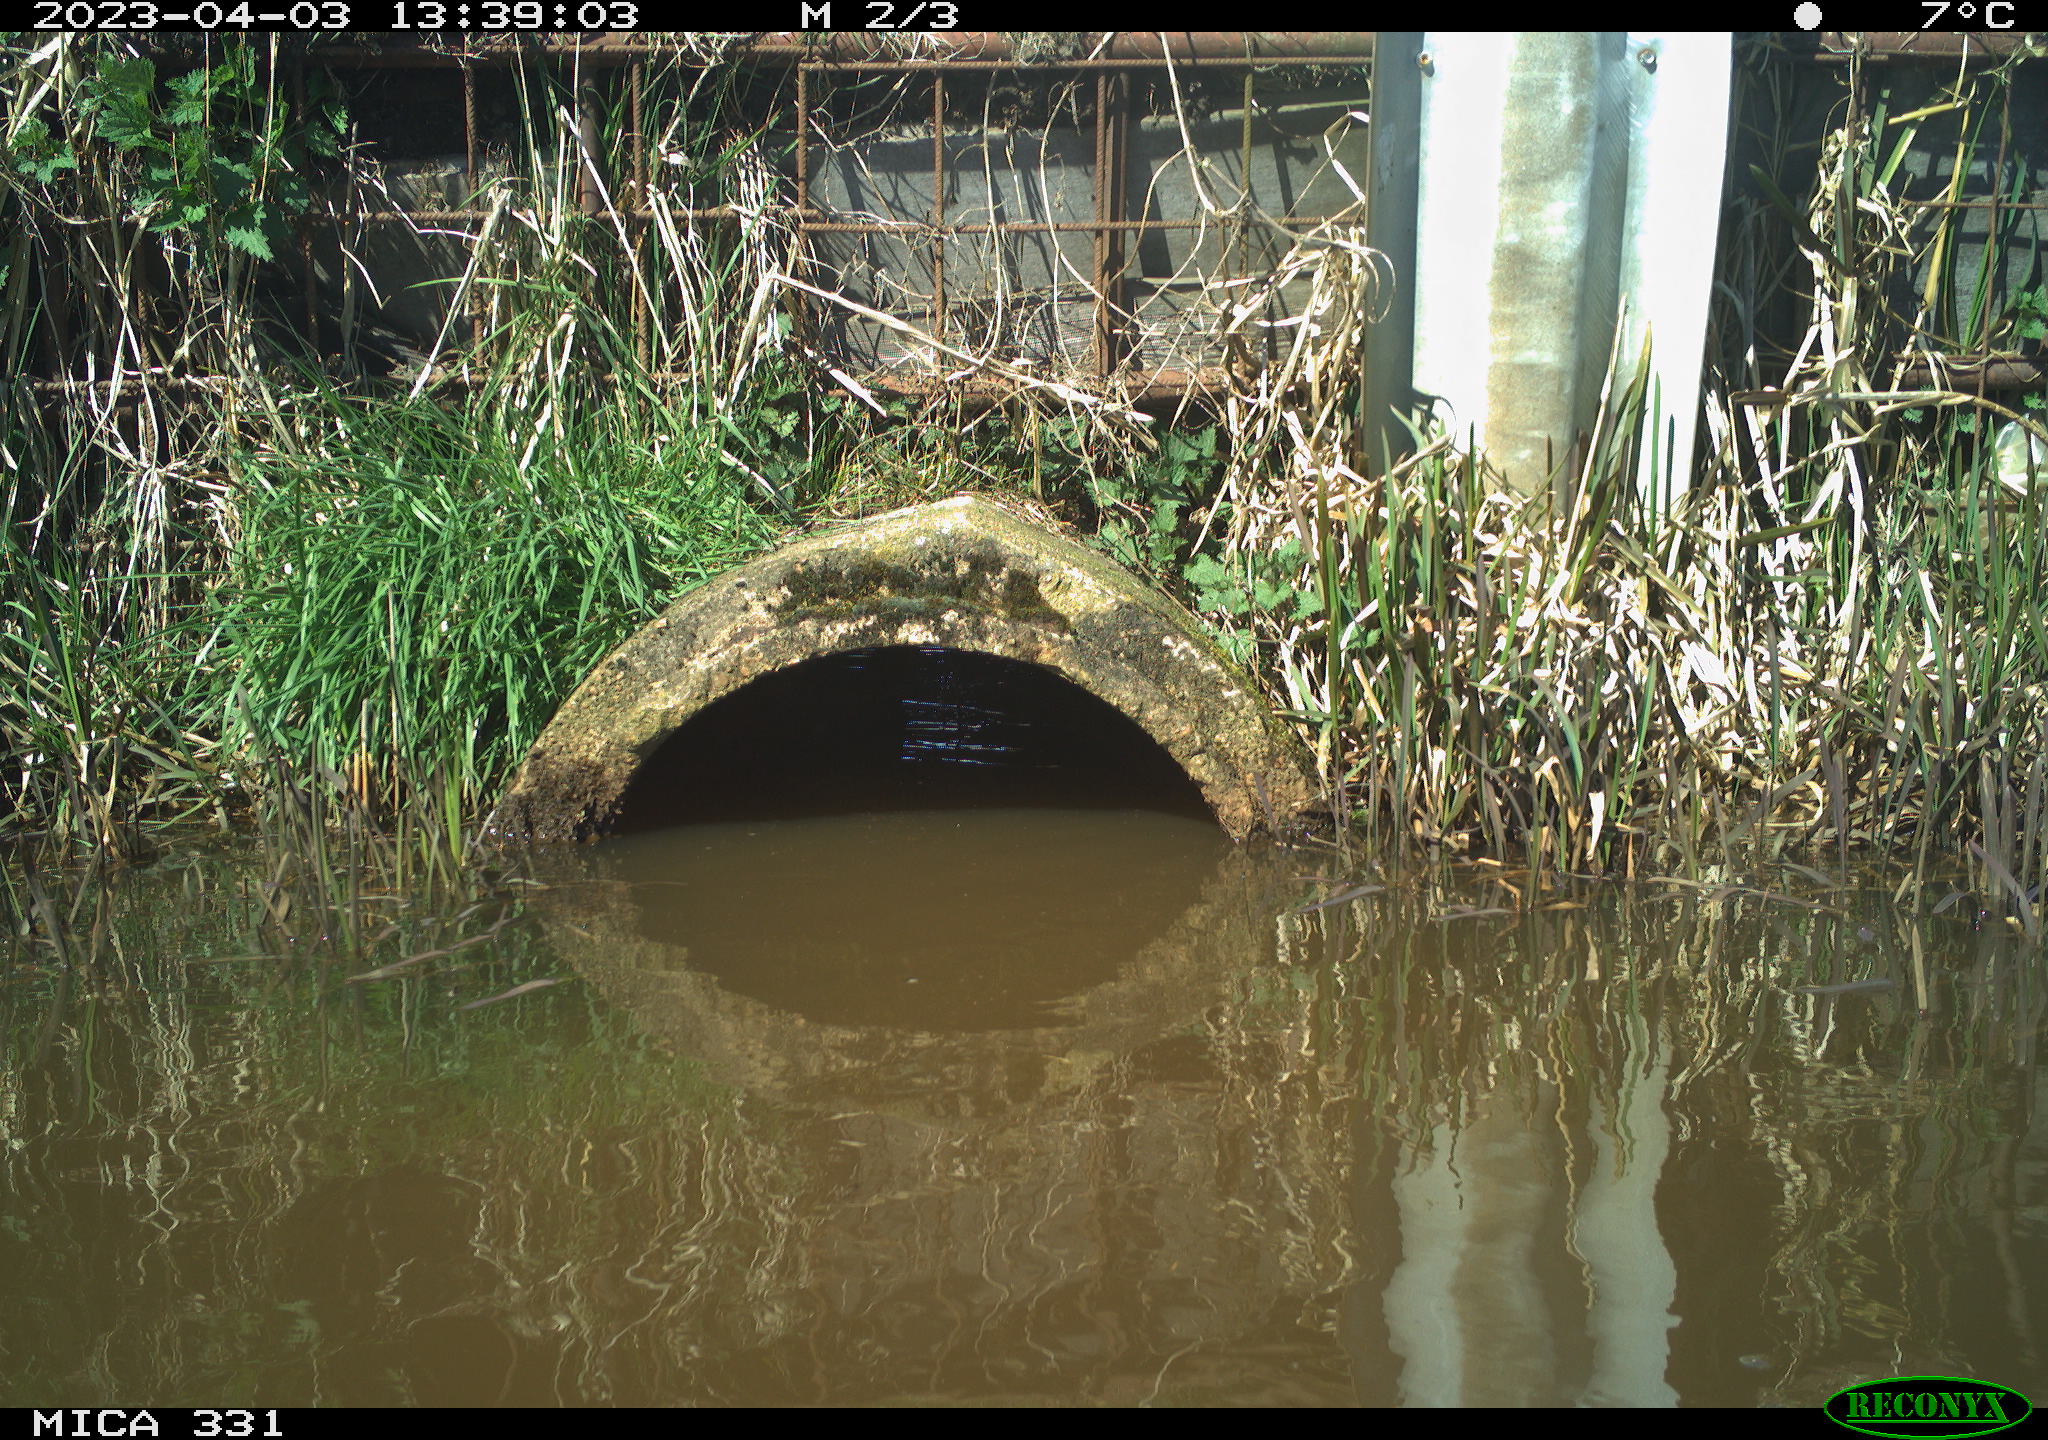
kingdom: Animalia
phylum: Chordata
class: Aves
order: Gruiformes
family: Rallidae
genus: Gallinula
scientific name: Gallinula chloropus
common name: Common moorhen
